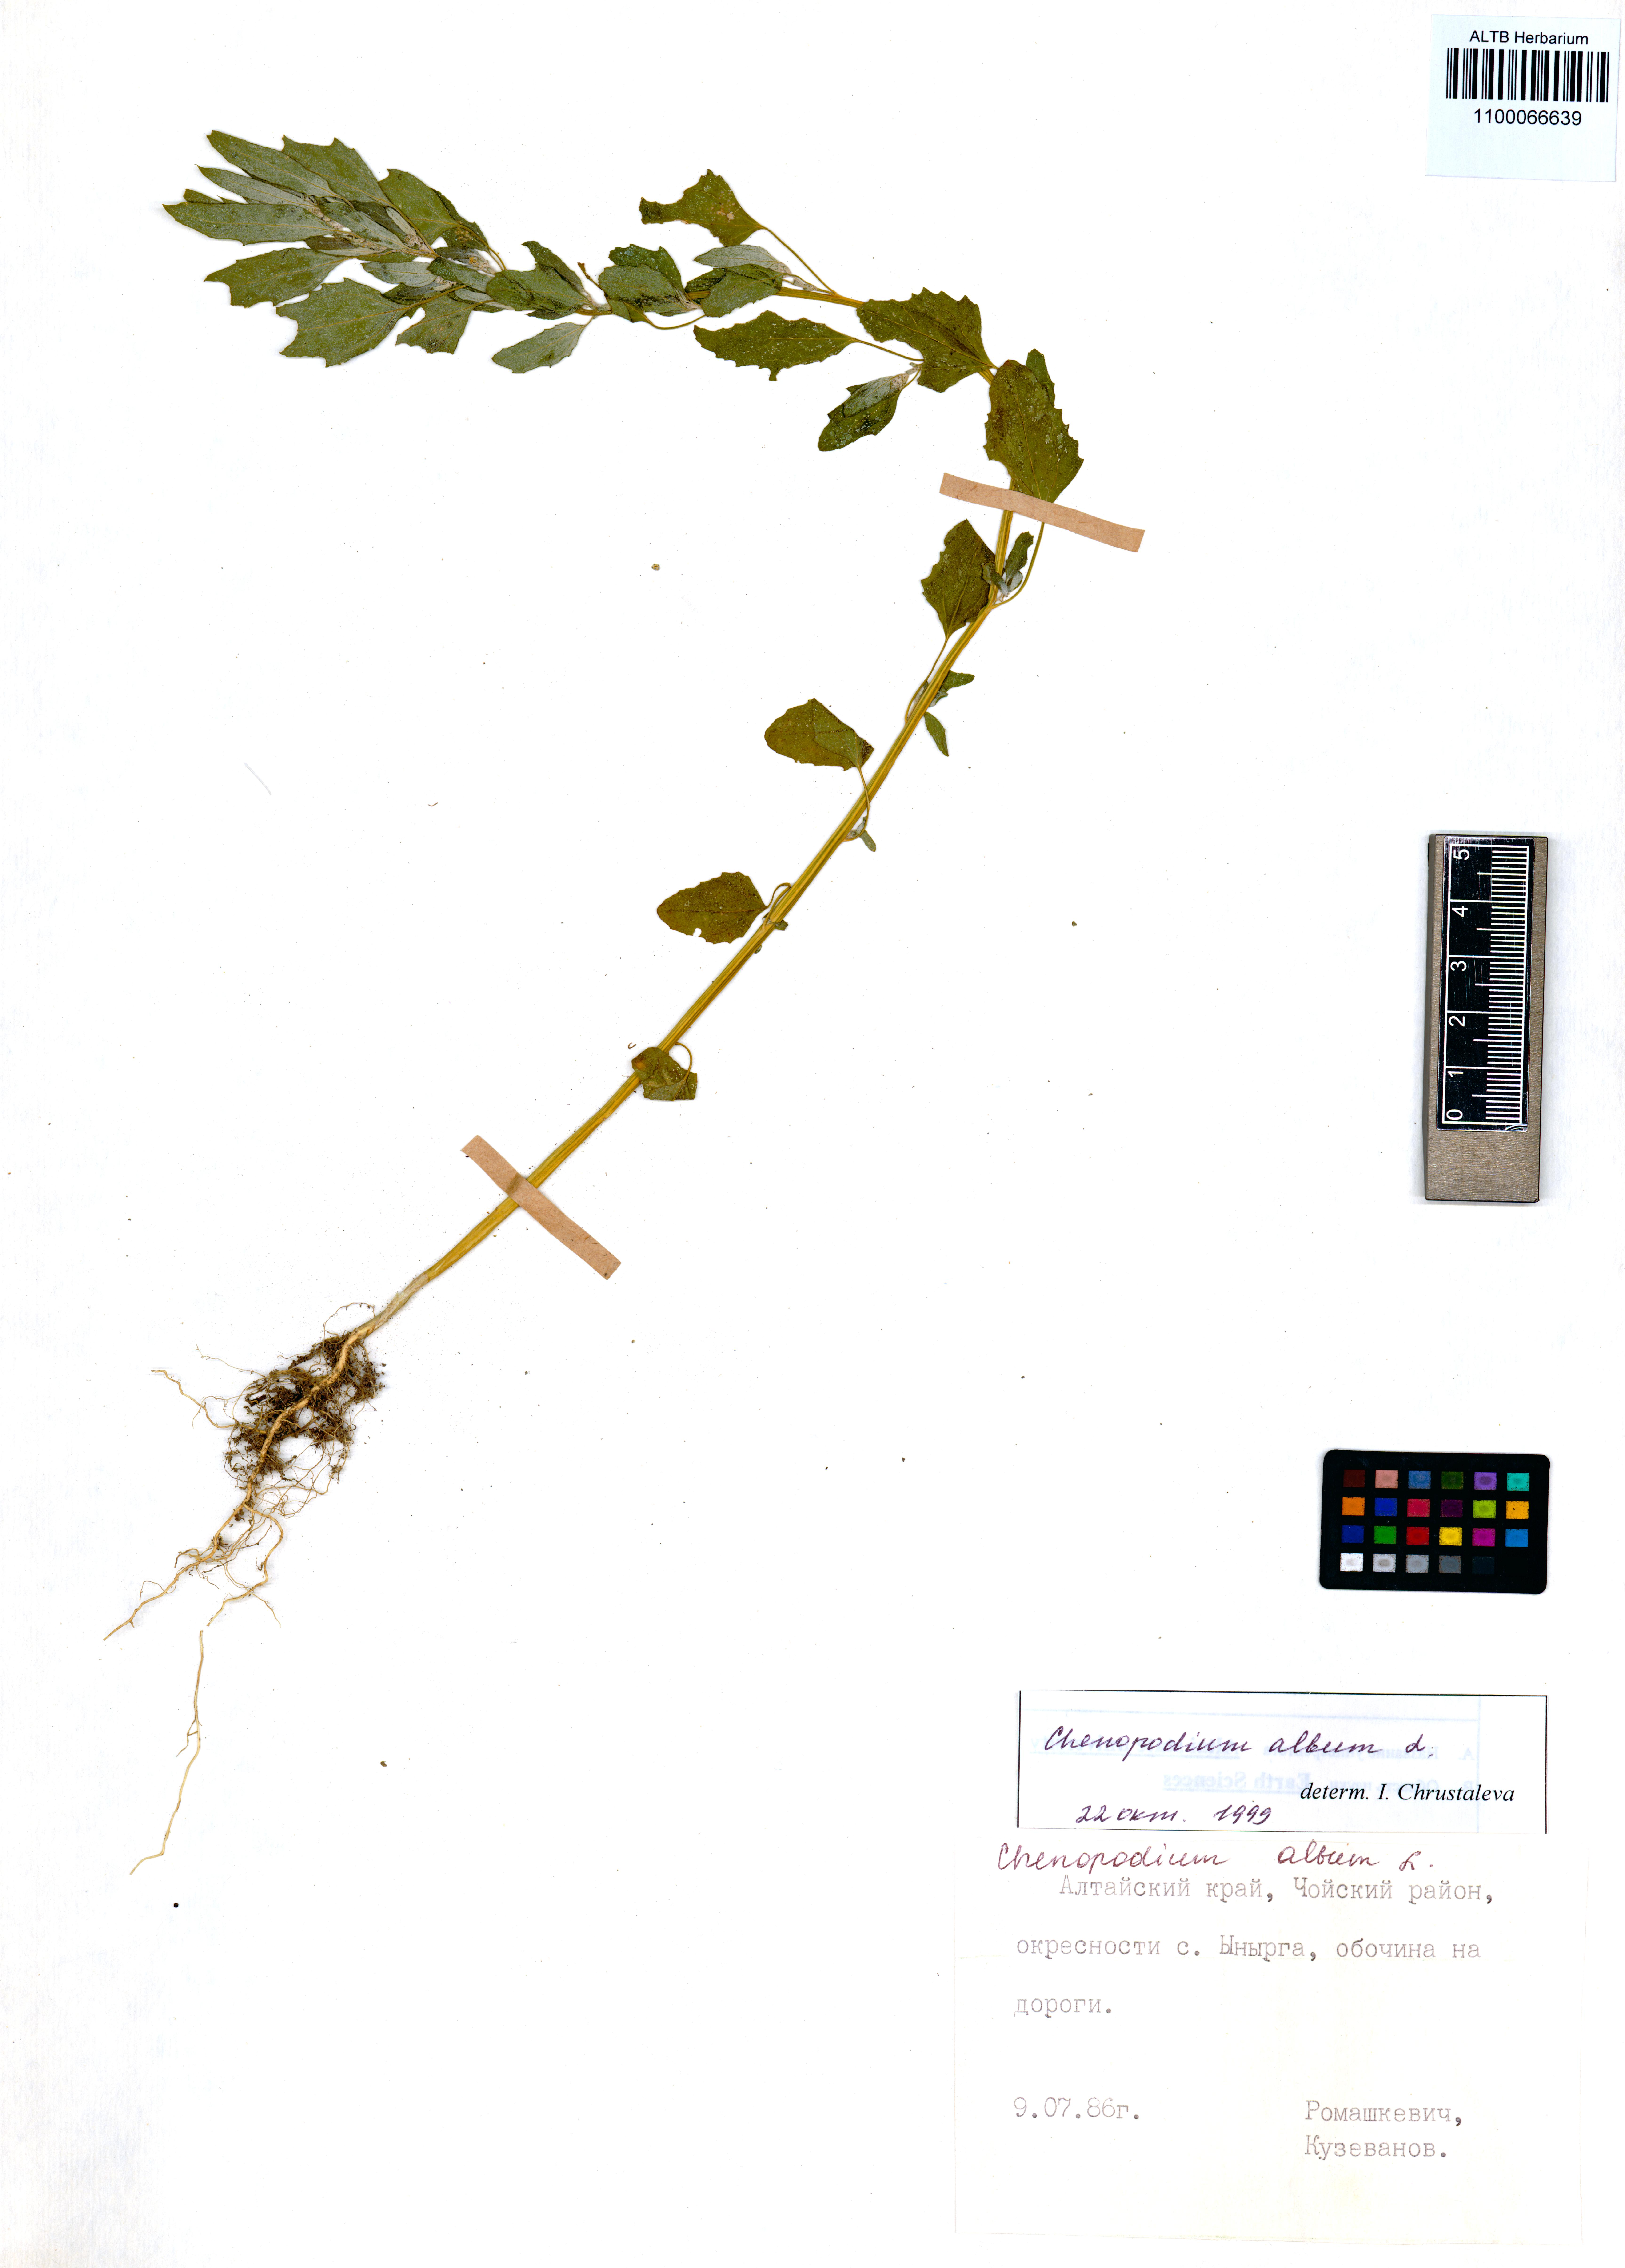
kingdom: Plantae
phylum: Tracheophyta
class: Magnoliopsida
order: Caryophyllales
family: Amaranthaceae
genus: Chenopodium
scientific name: Chenopodium album
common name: Fat-hen
